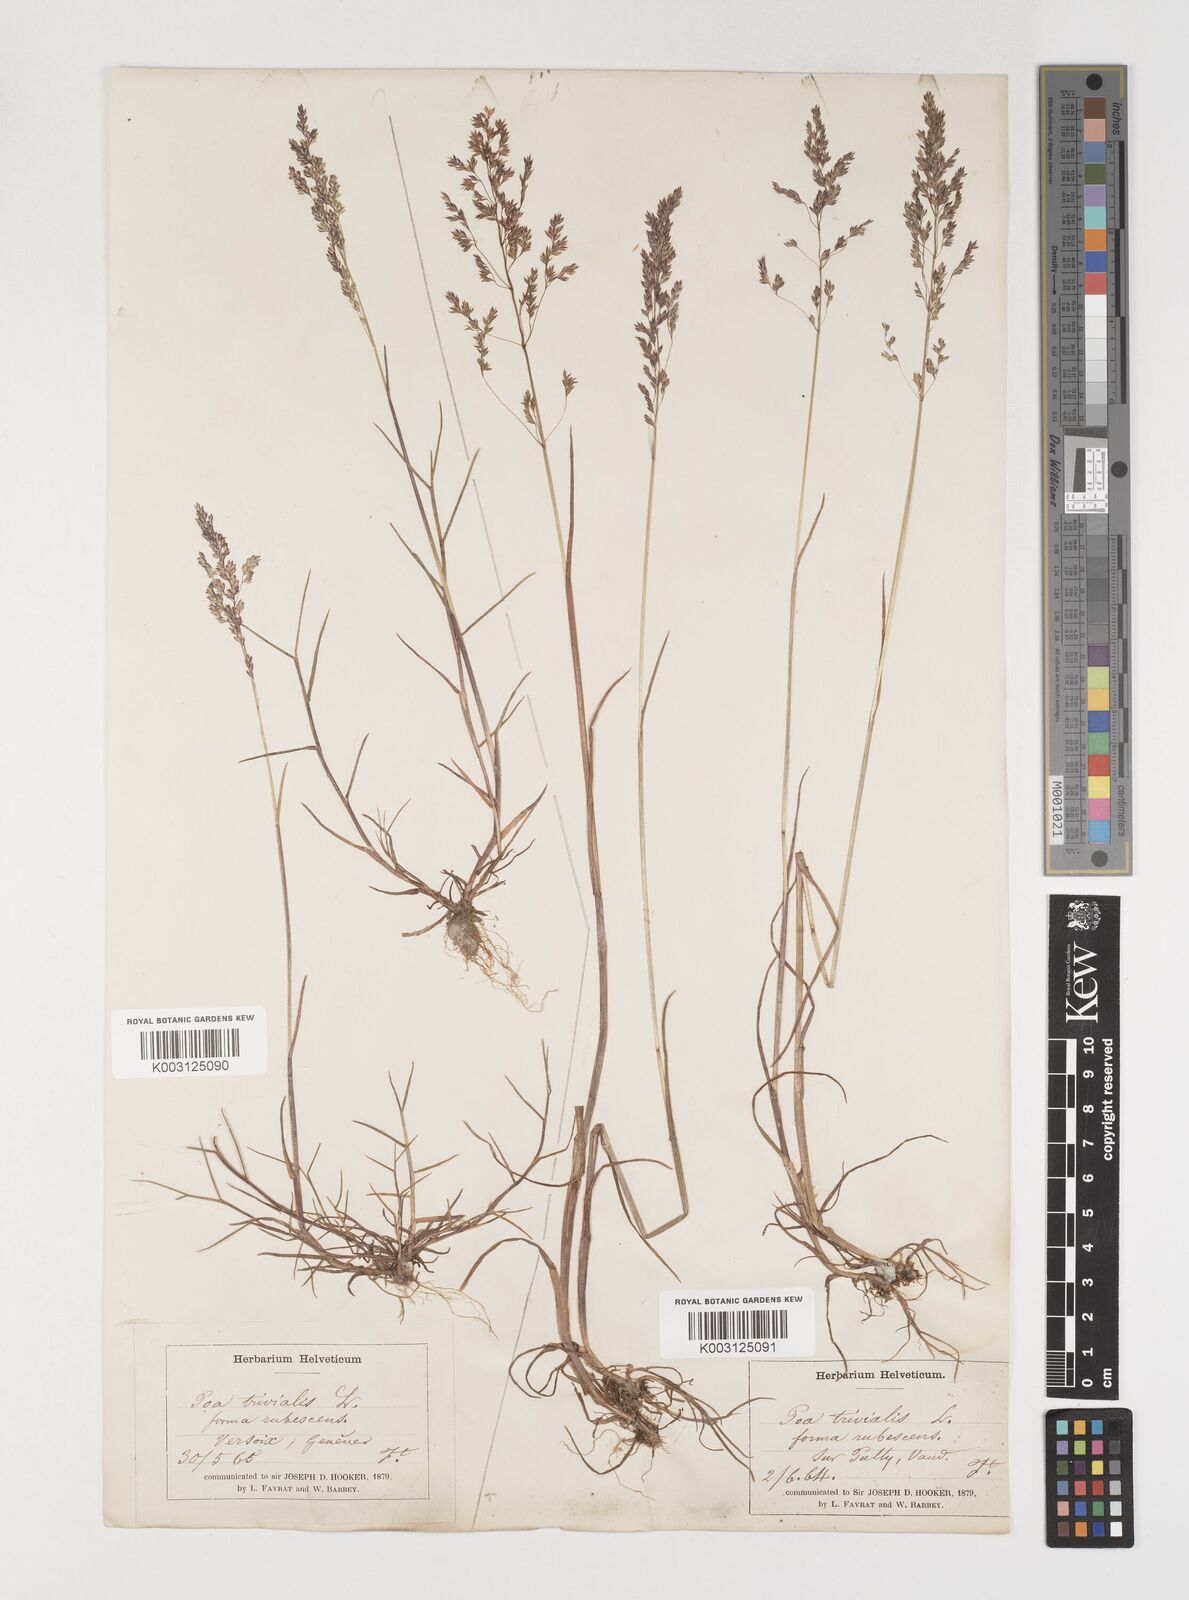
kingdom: Plantae
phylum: Tracheophyta
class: Liliopsida
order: Poales
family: Poaceae
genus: Poa
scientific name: Poa trivialis
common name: Rough bluegrass
